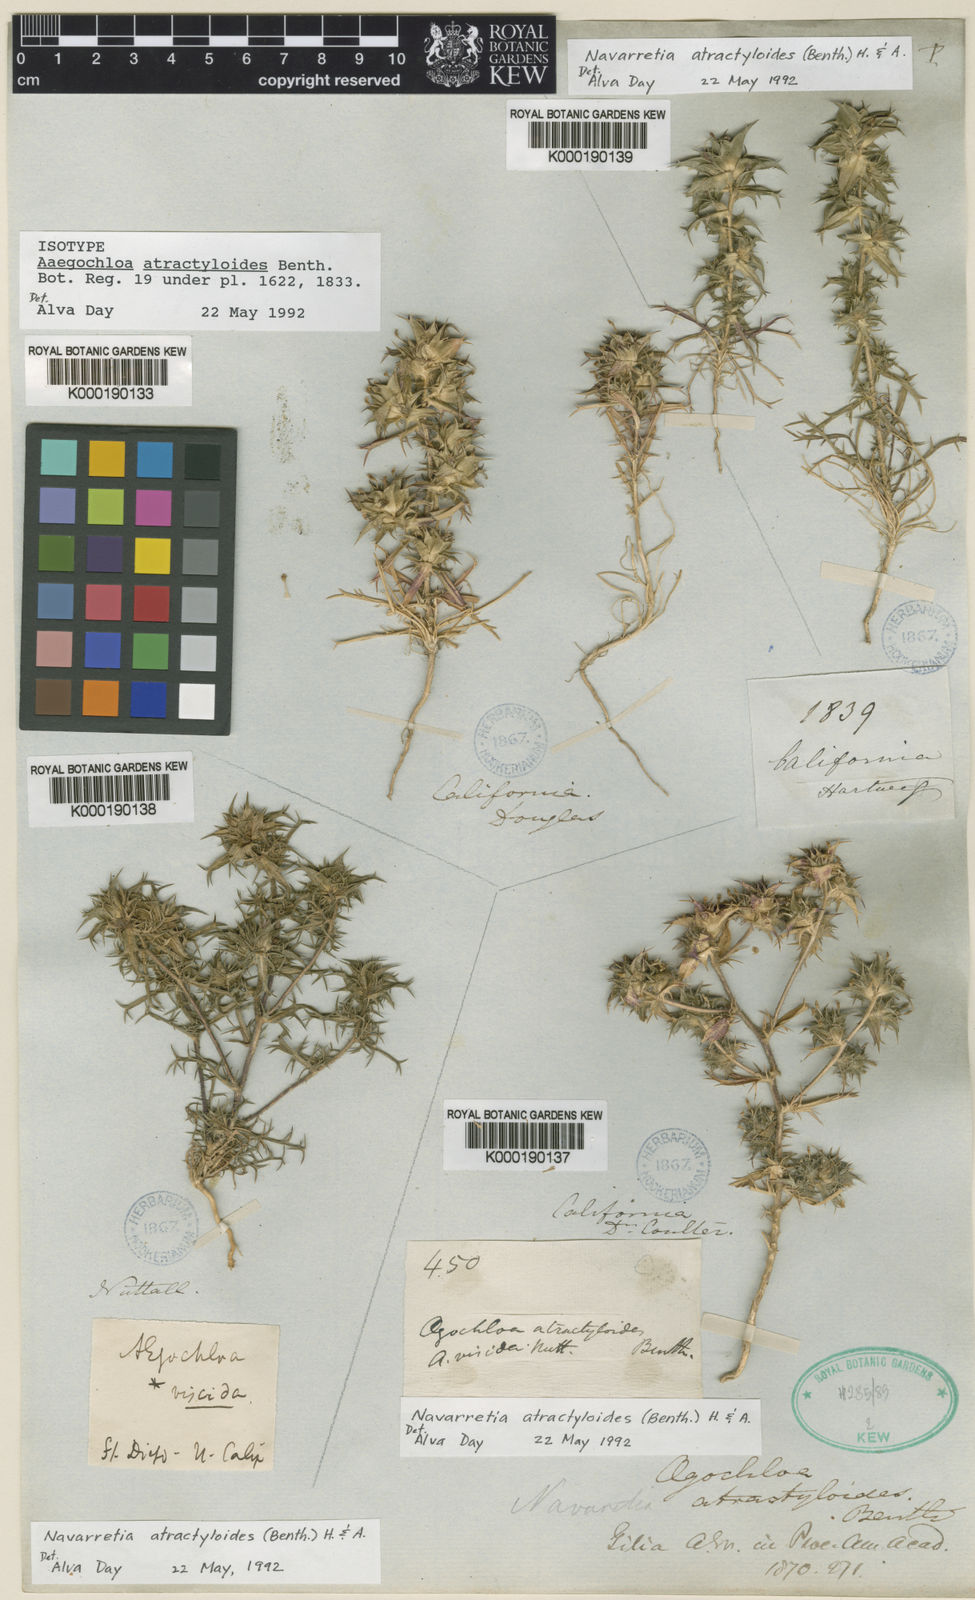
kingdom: Plantae
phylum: Tracheophyta
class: Magnoliopsida
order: Ericales
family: Polemoniaceae
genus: Navarretia
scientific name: Navarretia atractyloides
